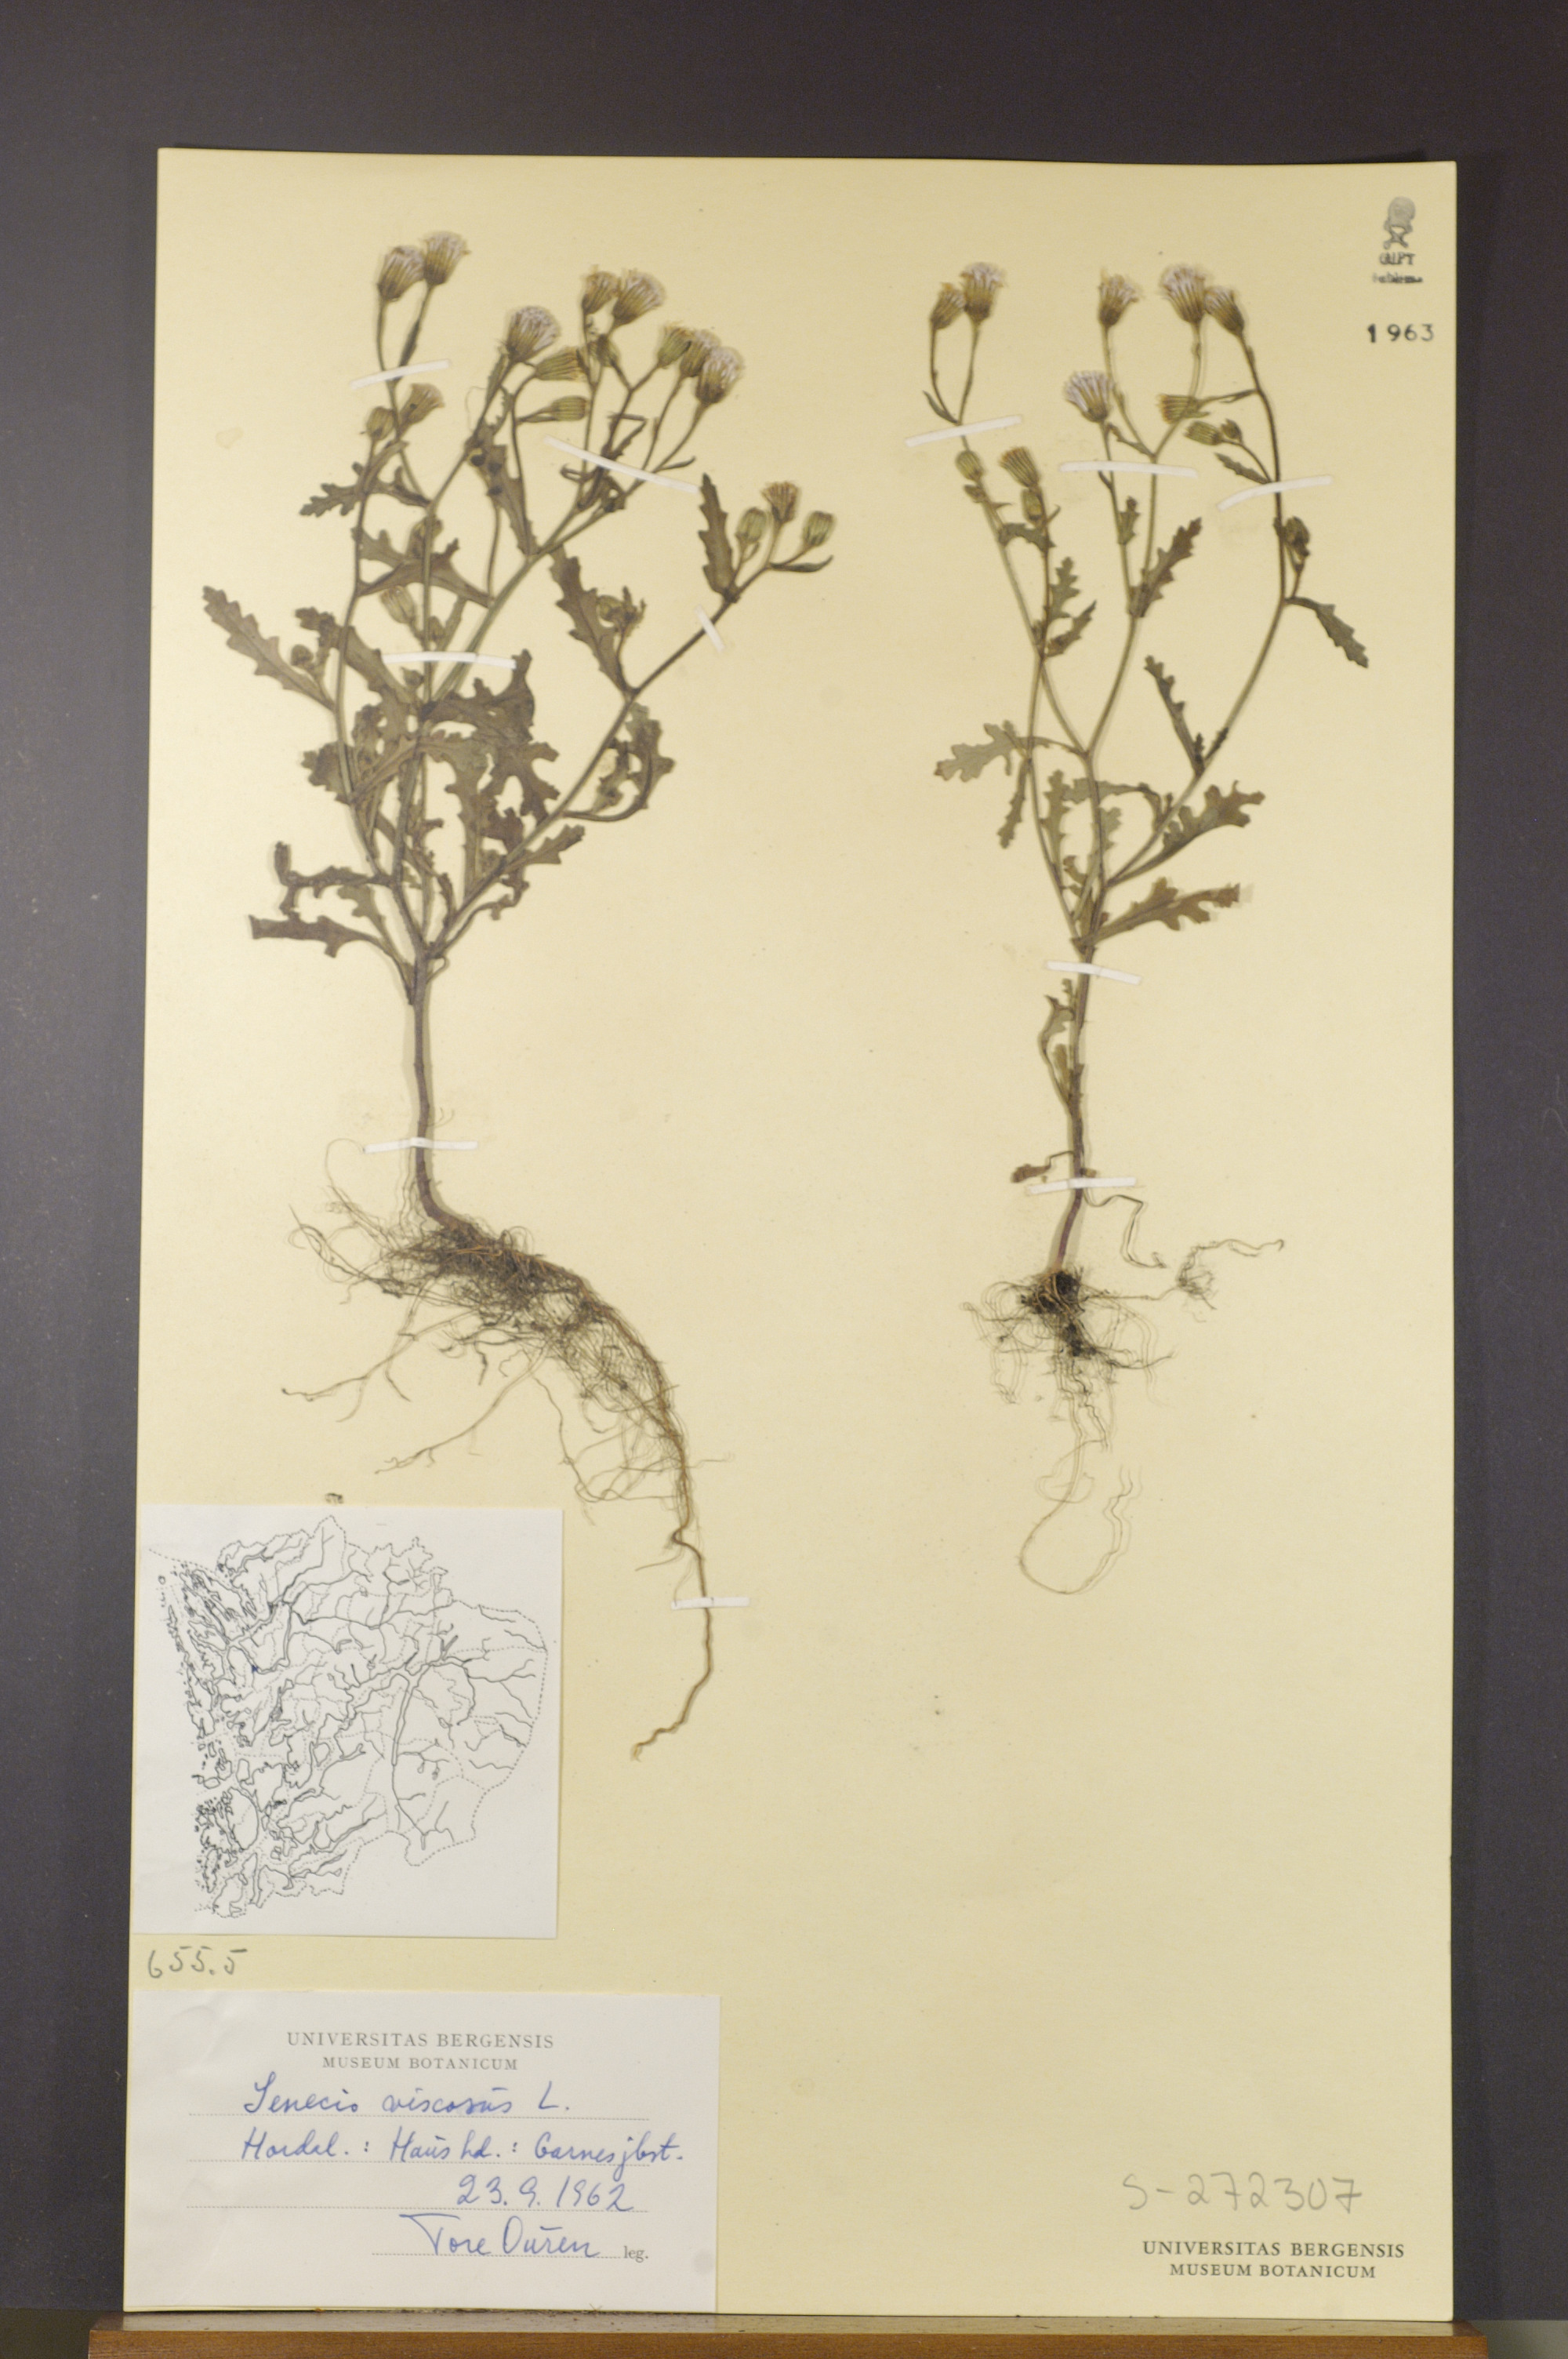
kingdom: Plantae
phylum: Tracheophyta
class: Magnoliopsida
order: Asterales
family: Asteraceae
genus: Senecio
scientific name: Senecio viscosus
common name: Sticky groundsel
